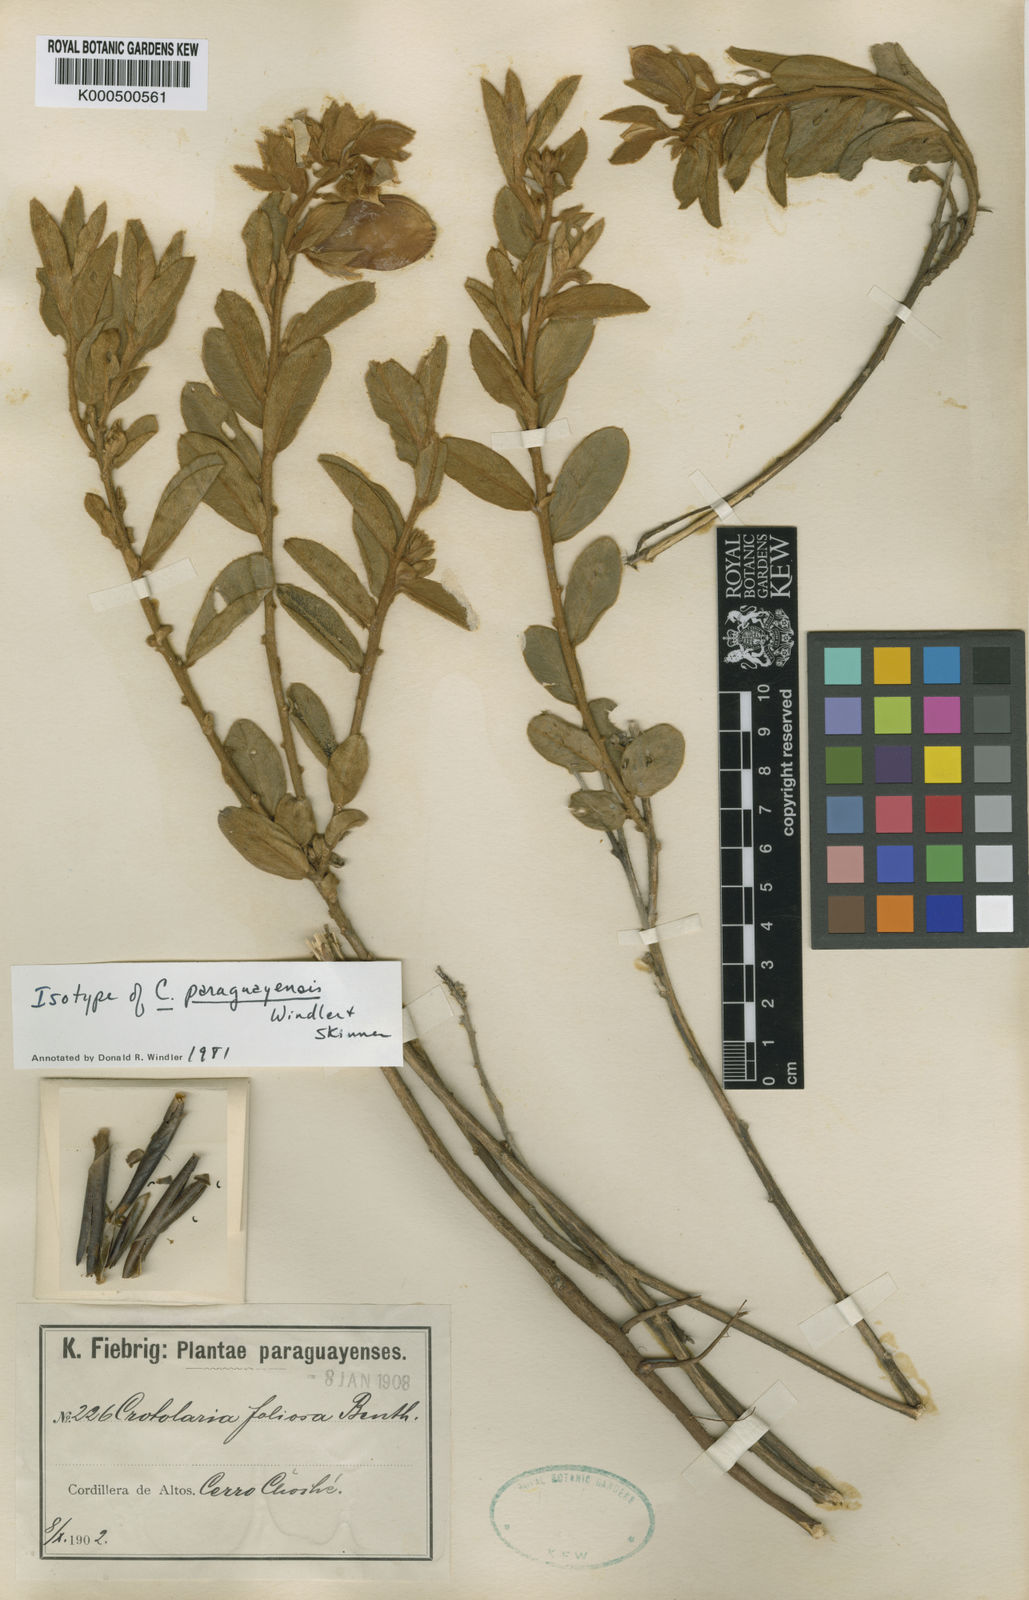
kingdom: Plantae
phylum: Tracheophyta
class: Magnoliopsida
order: Fabales
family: Fabaceae
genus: Crotalaria
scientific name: Crotalaria martiana
